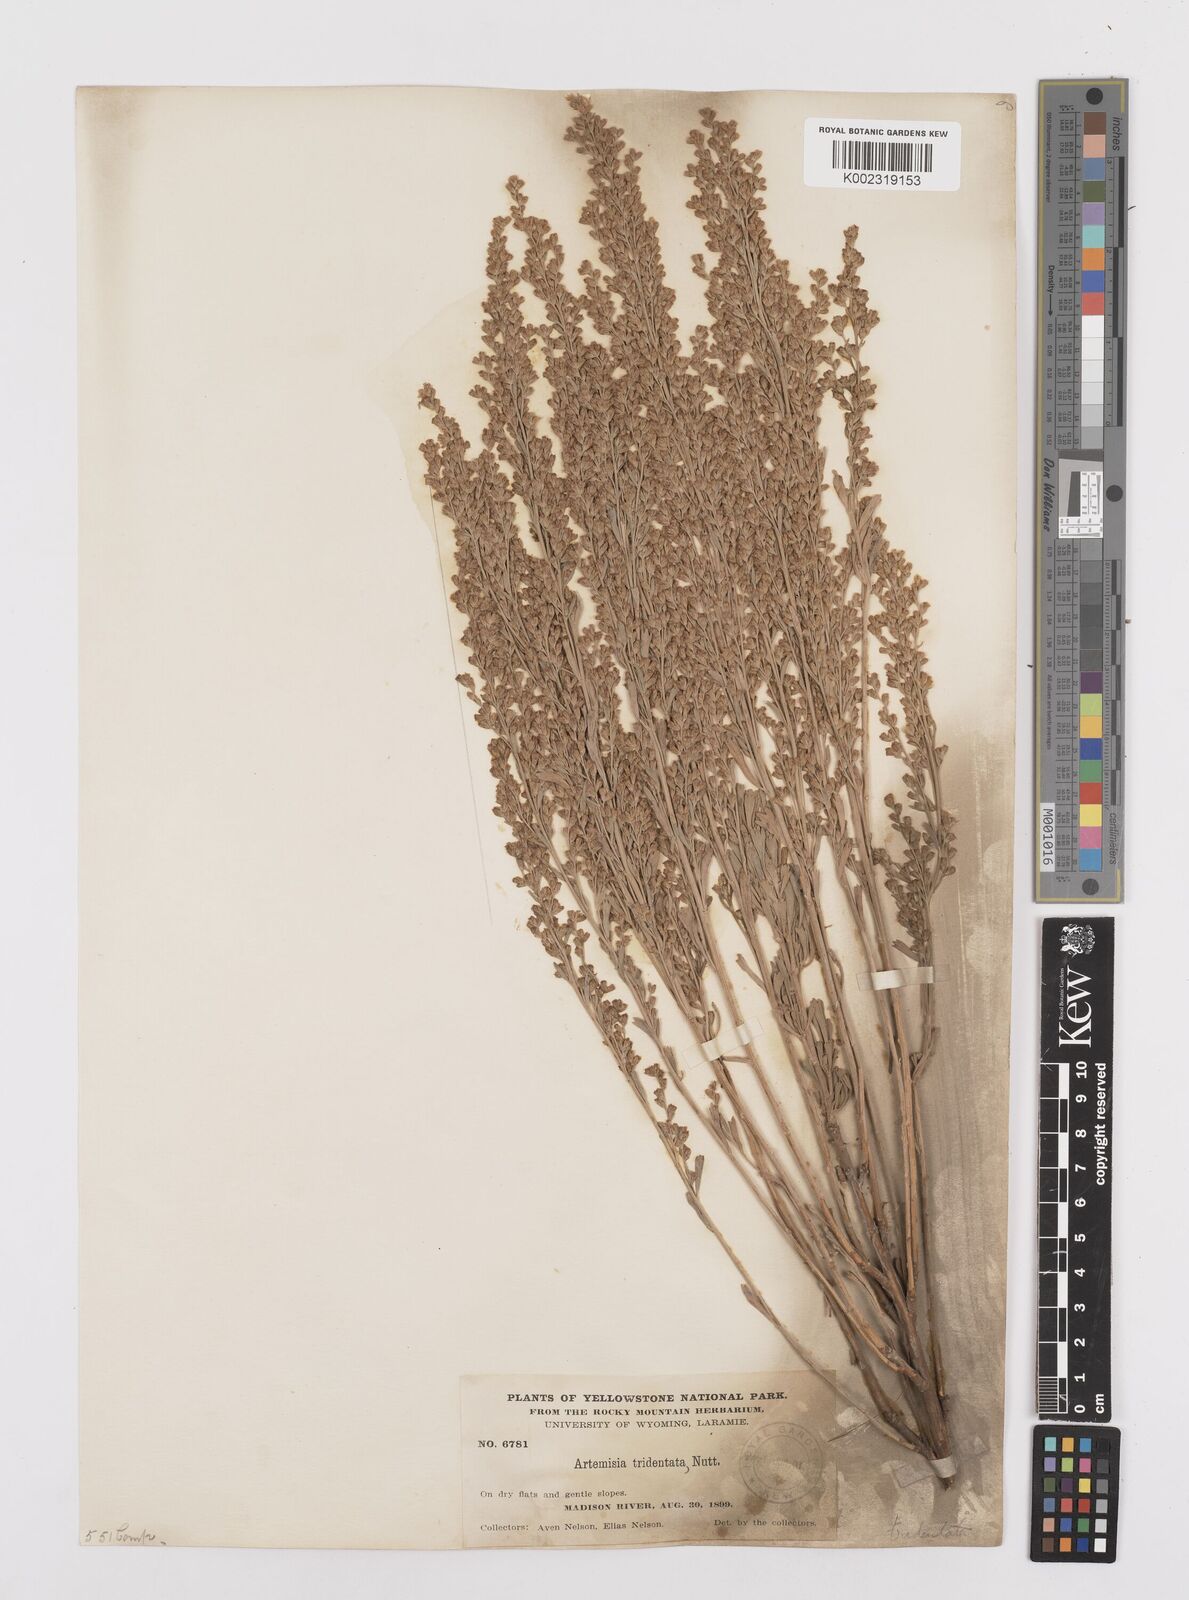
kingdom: Plantae
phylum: Tracheophyta
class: Magnoliopsida
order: Asterales
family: Asteraceae
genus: Artemisia
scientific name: Artemisia tridentata
